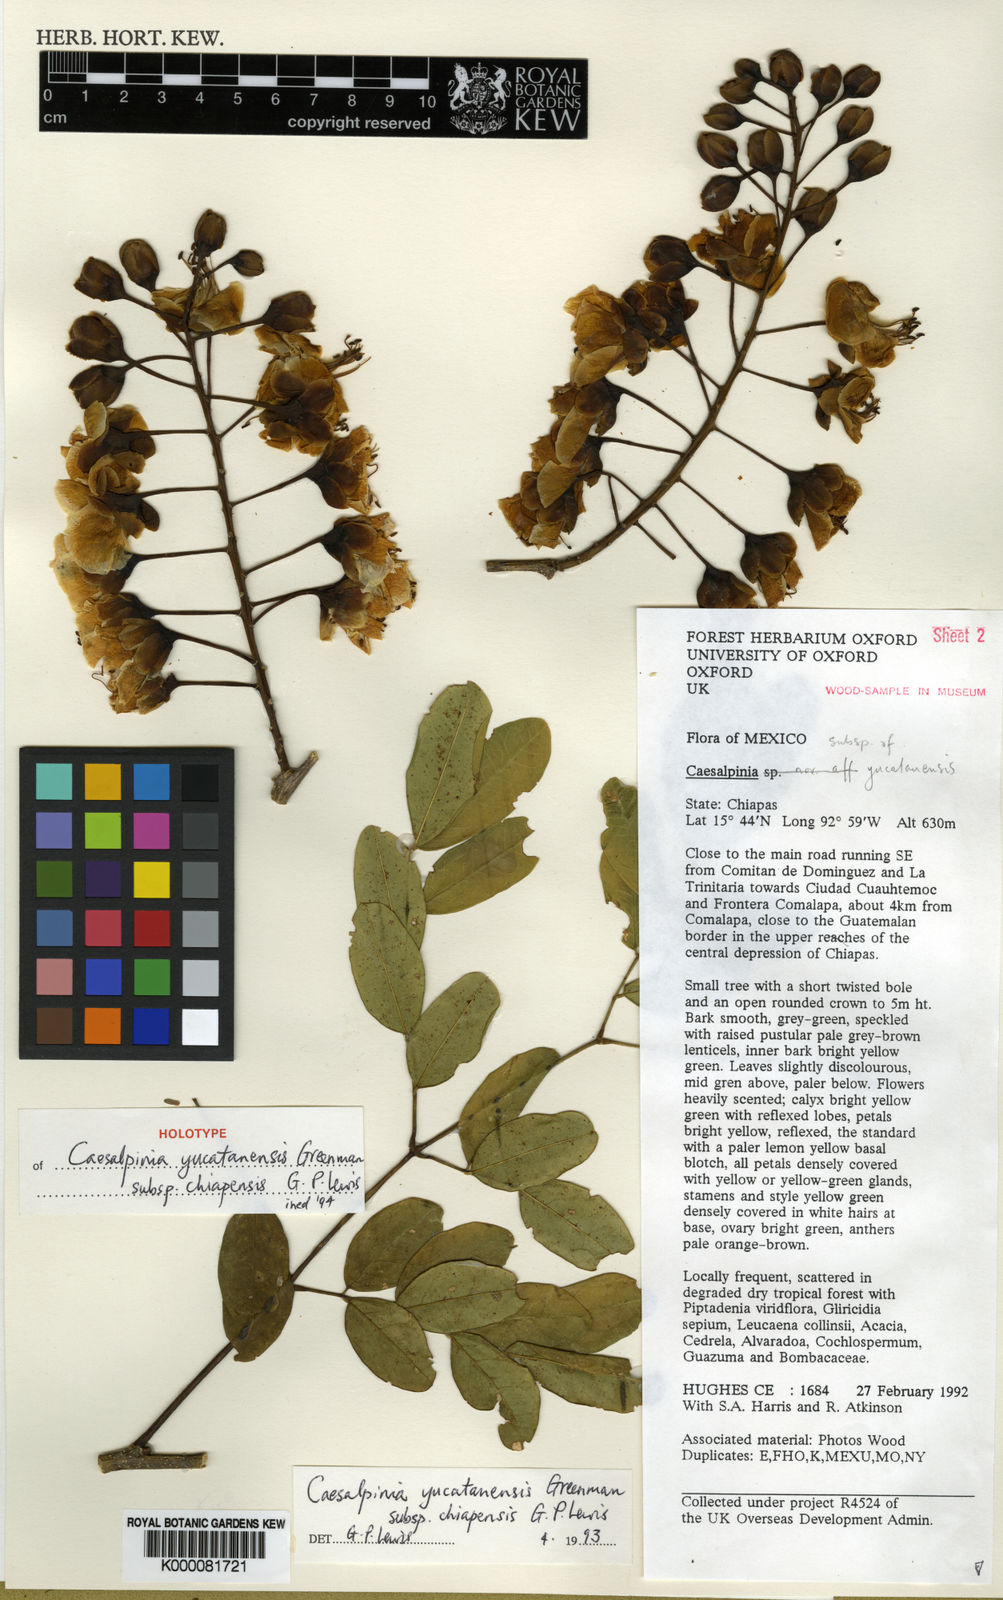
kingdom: Plantae
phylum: Tracheophyta
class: Magnoliopsida
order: Fabales
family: Fabaceae
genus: Erythrostemon
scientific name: Erythrostemon yucatanensis
